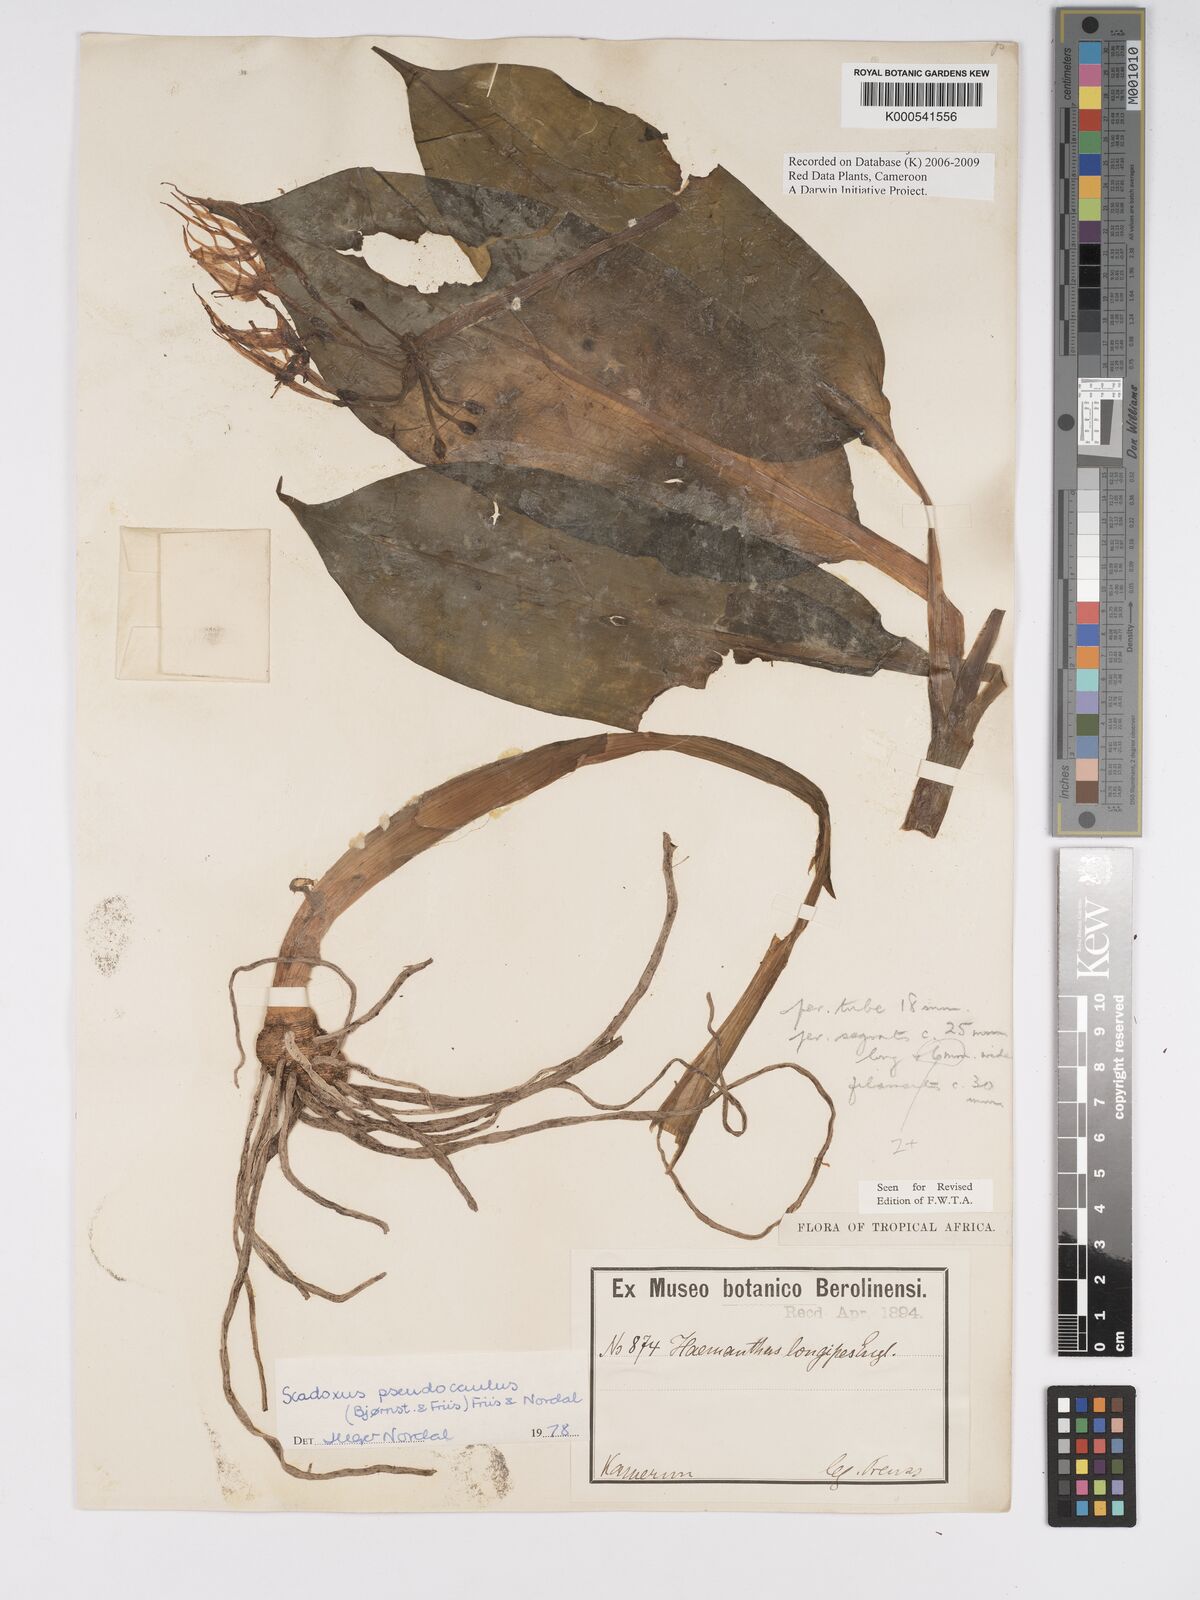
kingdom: Plantae
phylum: Tracheophyta
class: Liliopsida
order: Asparagales
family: Amaryllidaceae
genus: Scadoxus
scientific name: Scadoxus pseudocaulus
